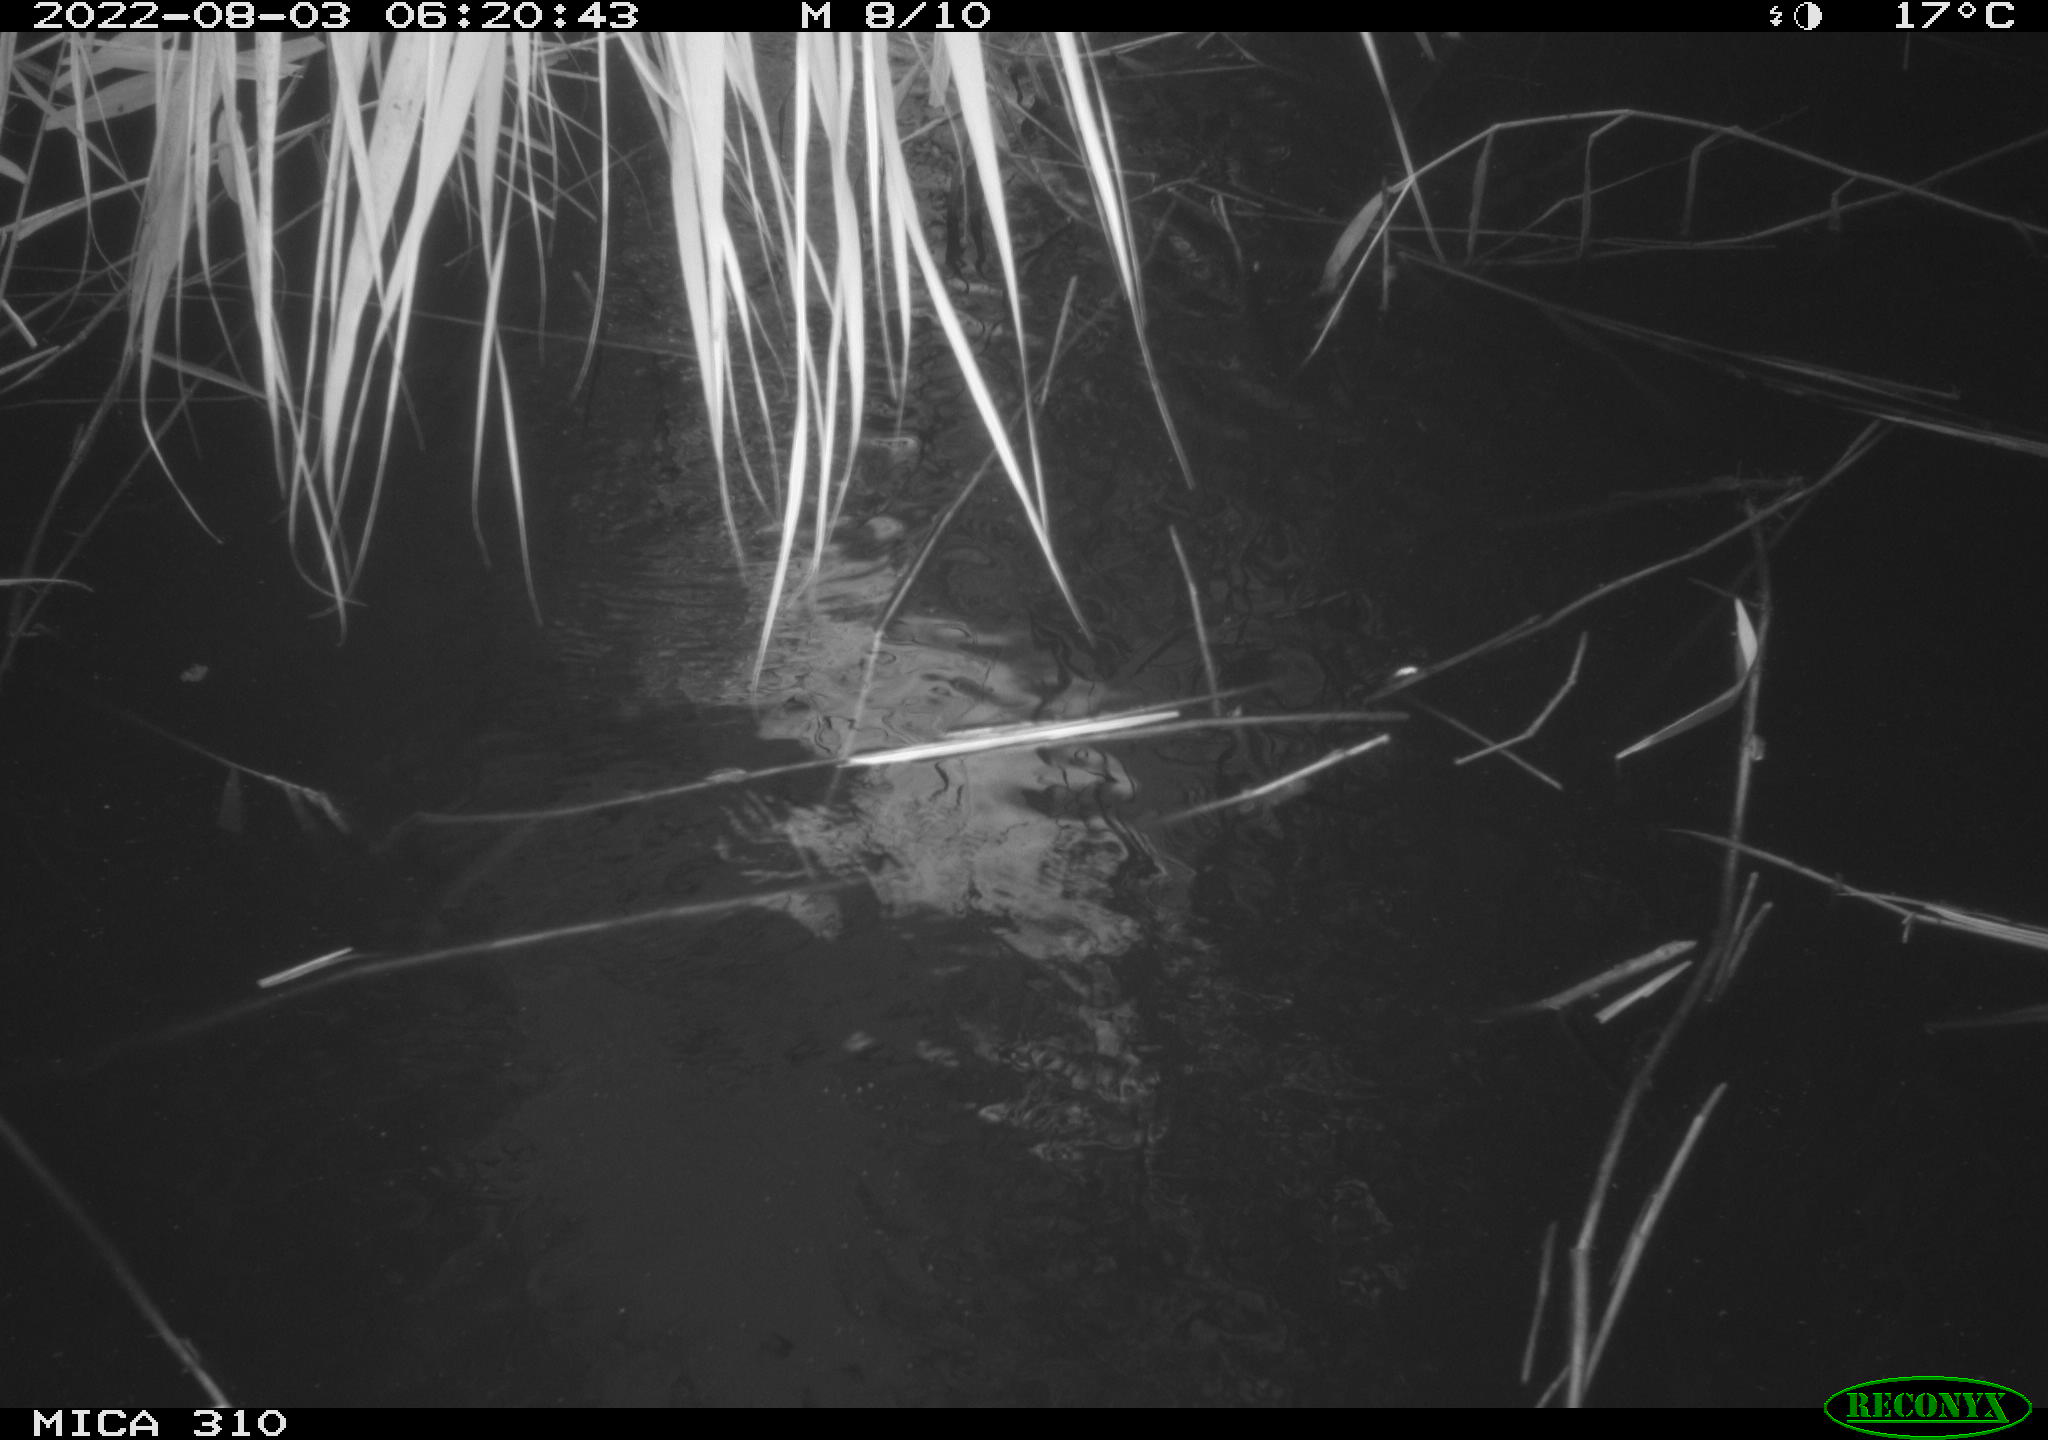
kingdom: Animalia
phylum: Chordata
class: Aves
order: Anseriformes
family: Anatidae
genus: Anas
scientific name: Anas platyrhynchos
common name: Mallard
